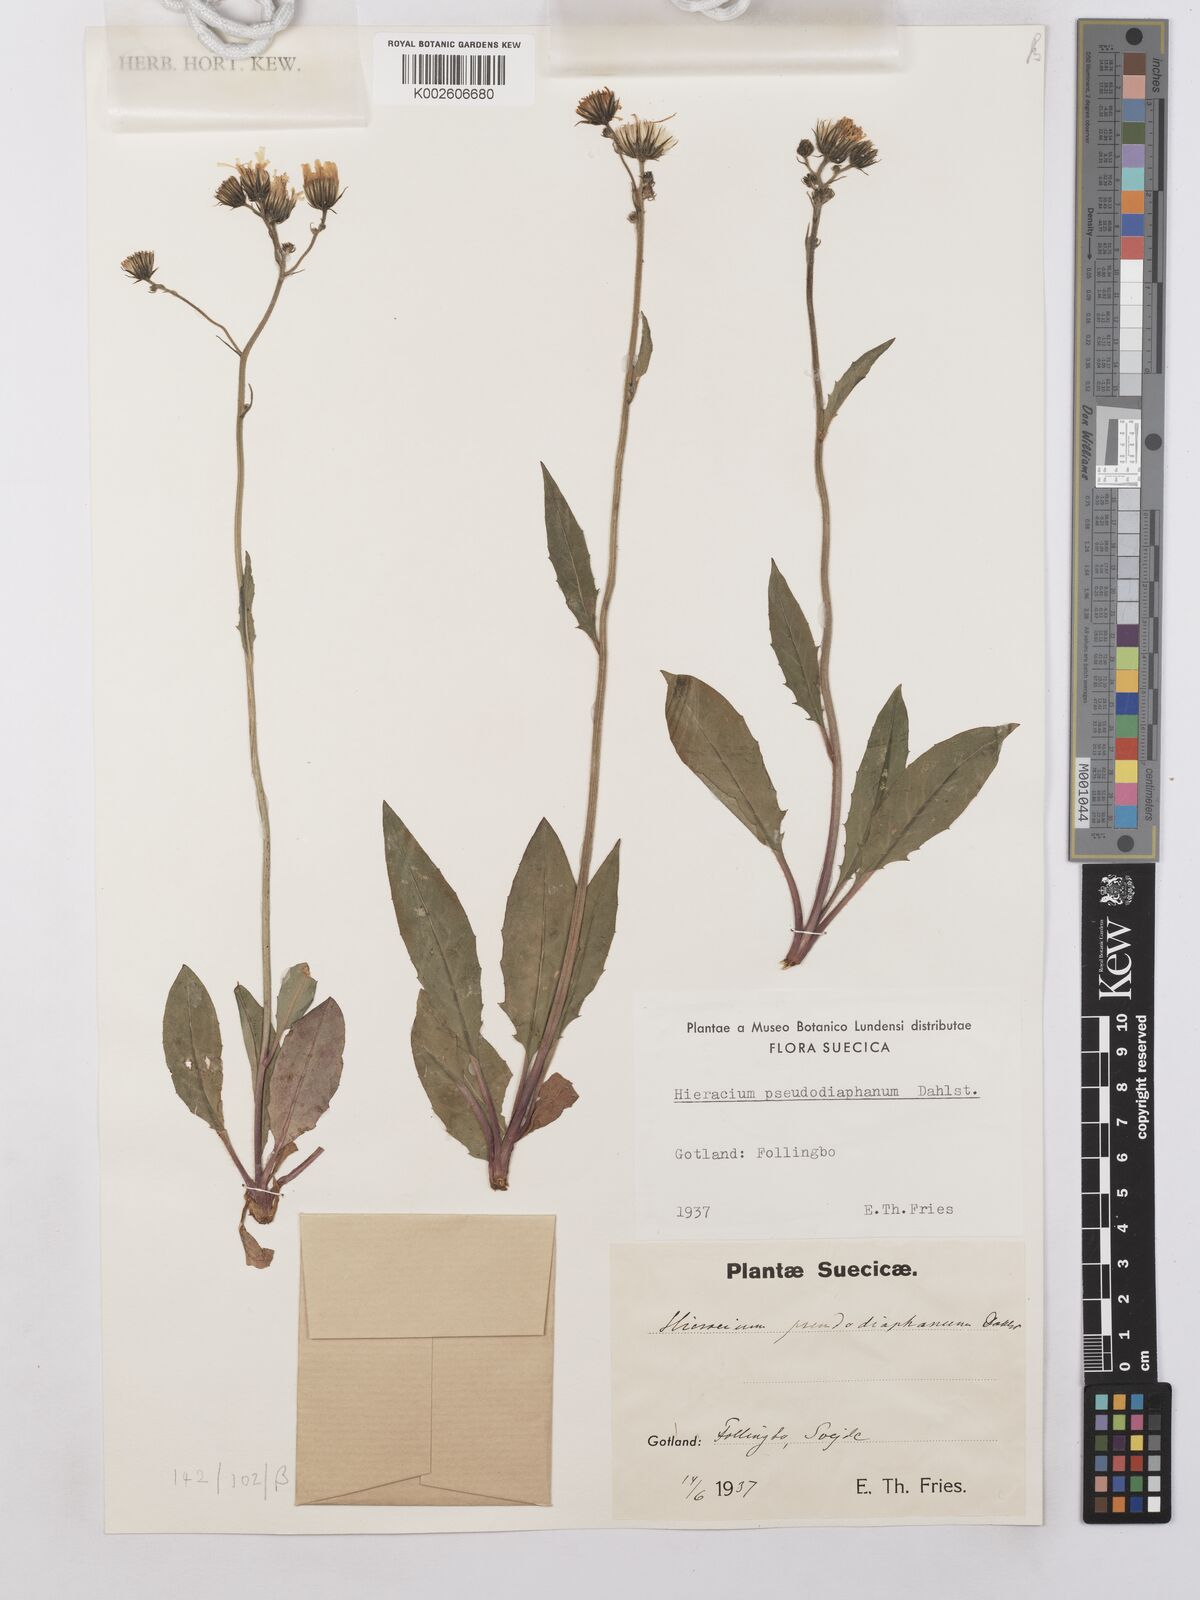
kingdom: Plantae
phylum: Tracheophyta
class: Magnoliopsida
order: Asterales
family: Asteraceae
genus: Hieracium
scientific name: Hieracium lachenalii
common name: Common hawkweed
